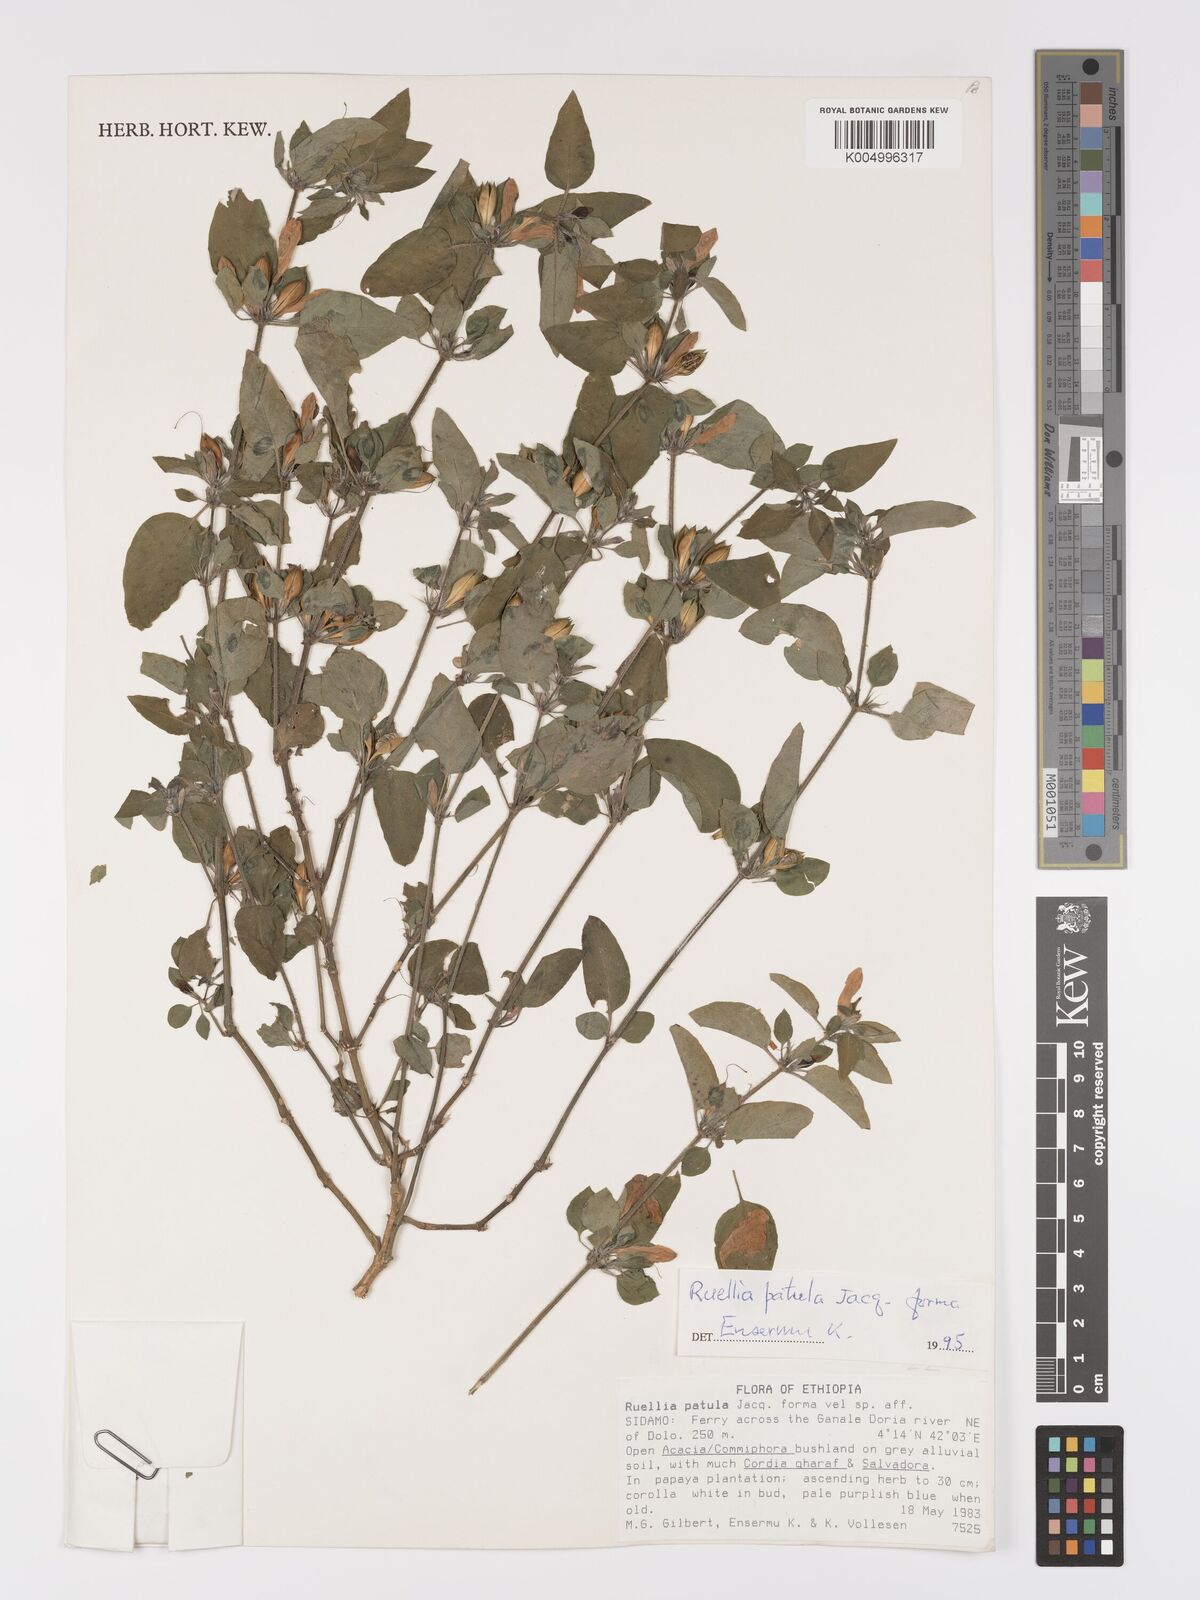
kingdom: Plantae
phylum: Tracheophyta
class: Magnoliopsida
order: Lamiales
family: Acanthaceae
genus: Ruellia
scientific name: Ruellia patula
